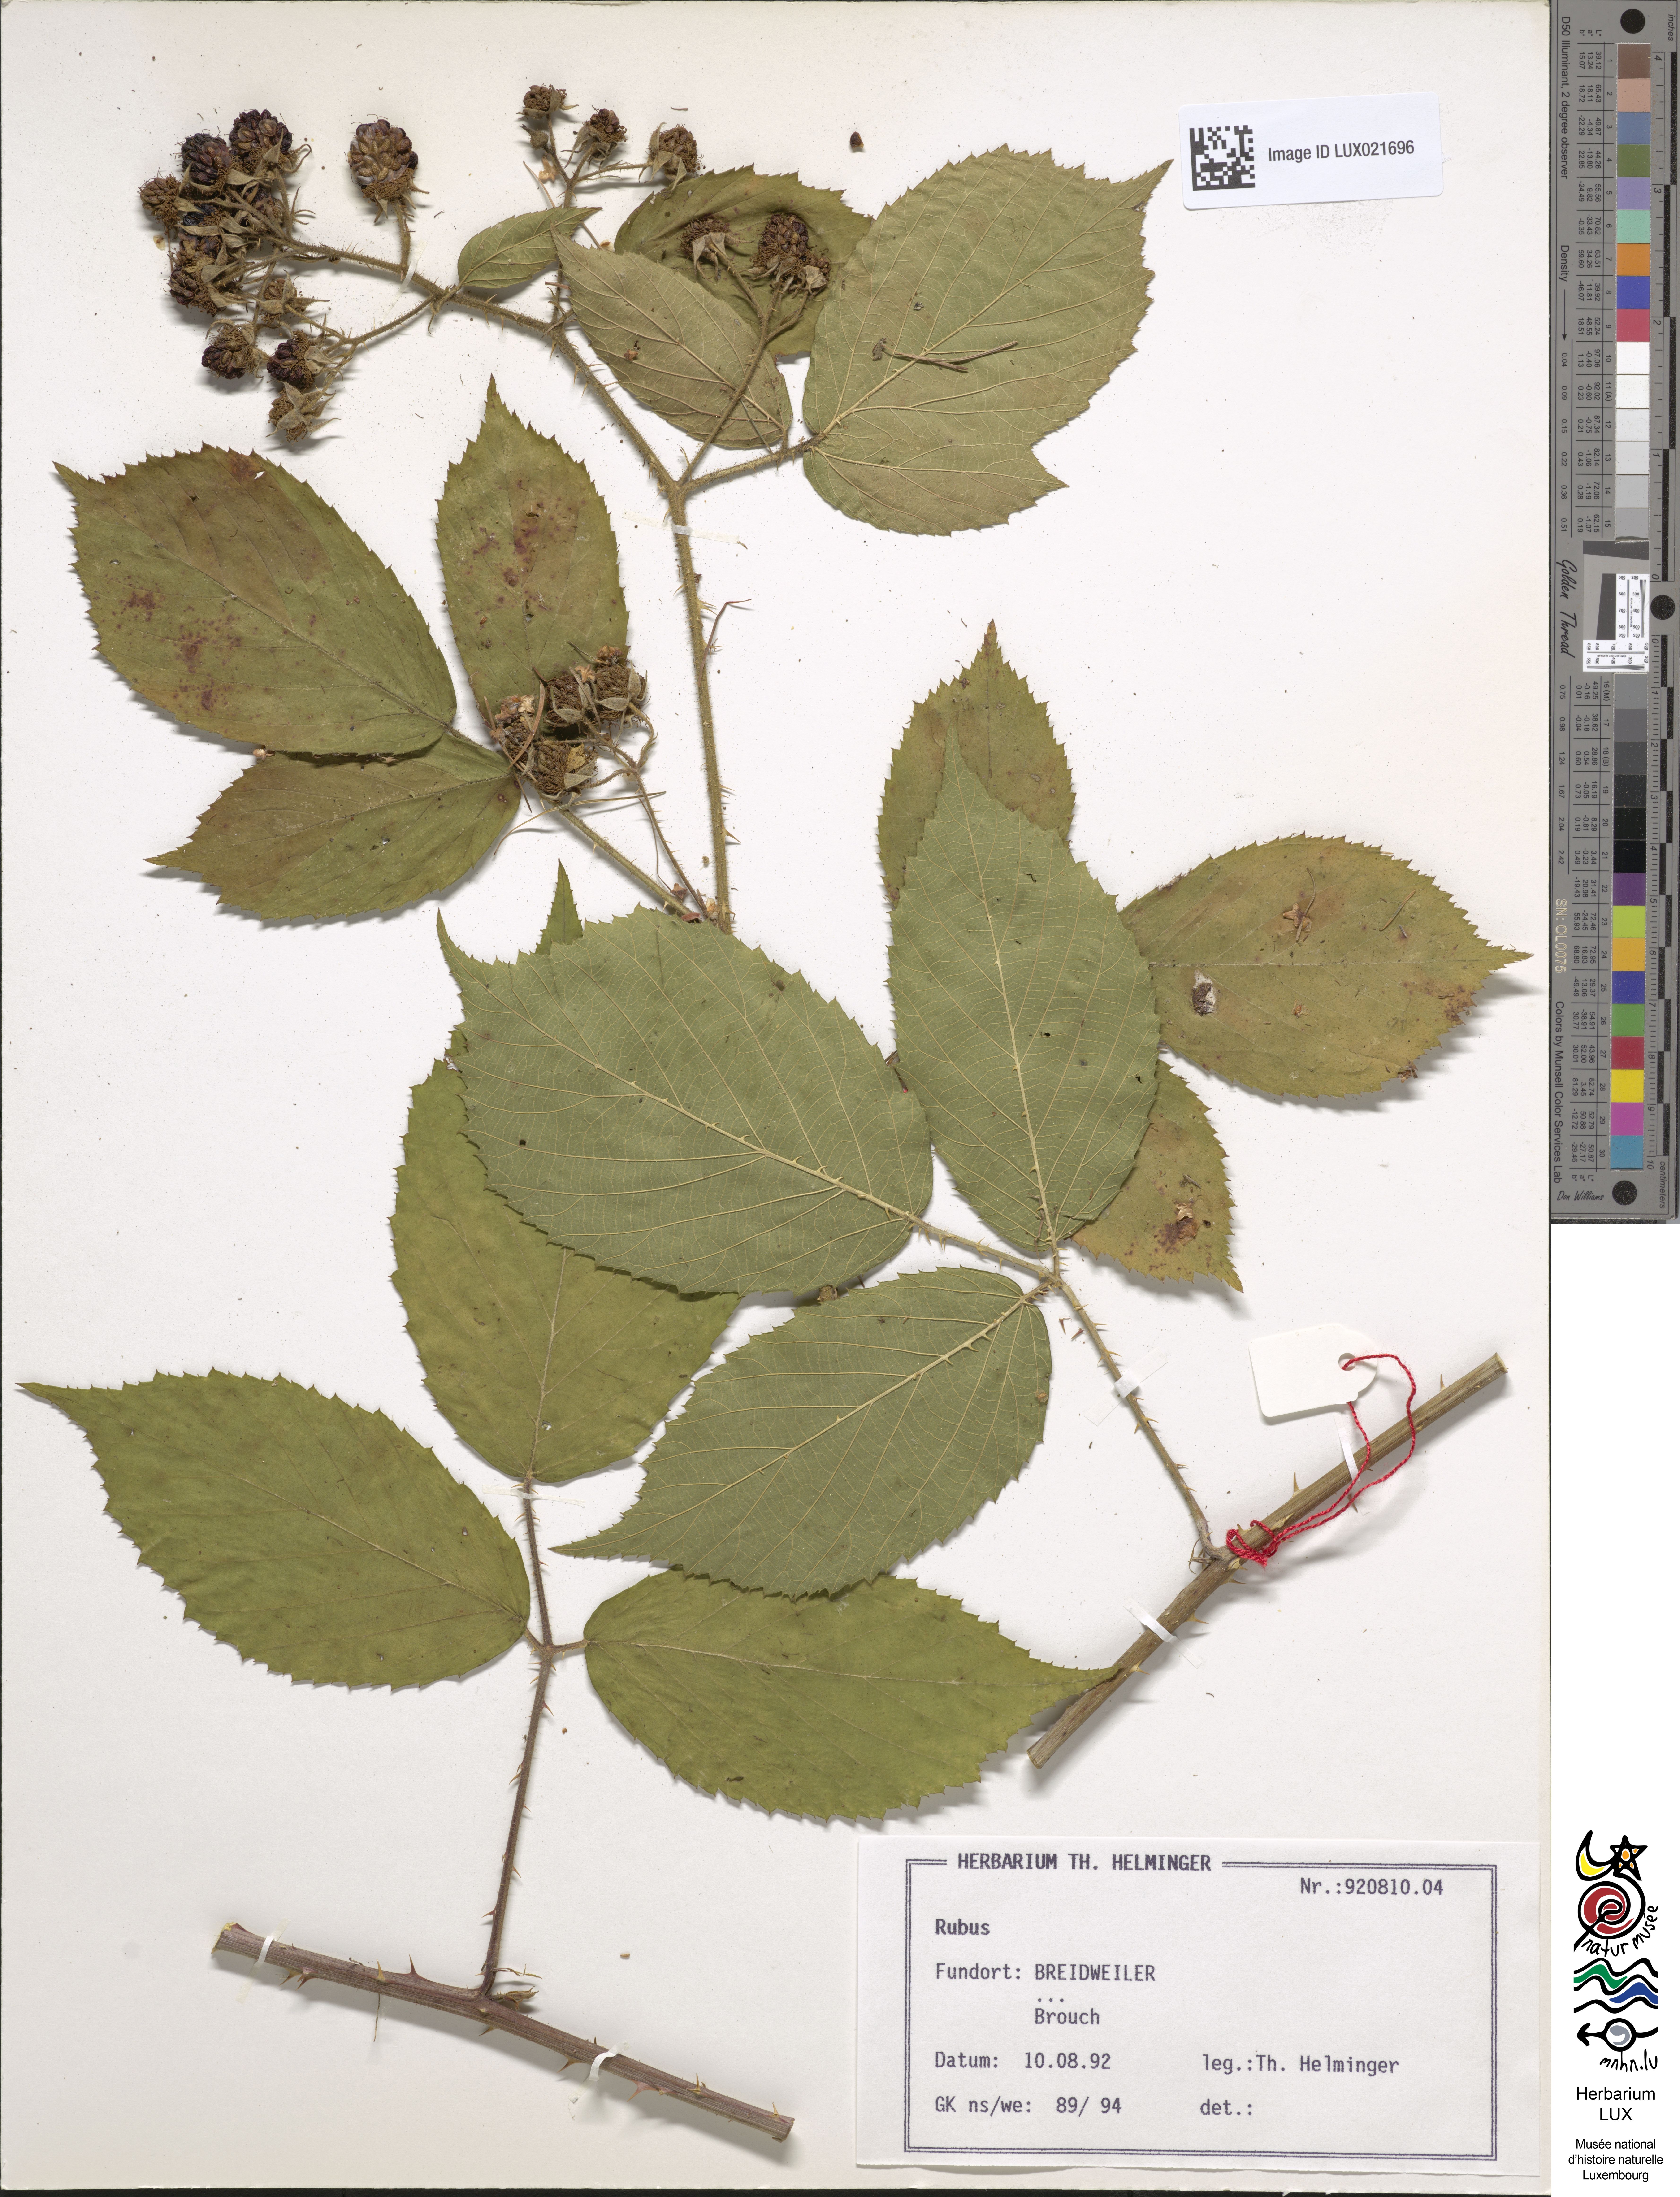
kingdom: Plantae
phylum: Tracheophyta
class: Magnoliopsida
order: Rosales
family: Rosaceae
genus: Rubus
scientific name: Rubus
